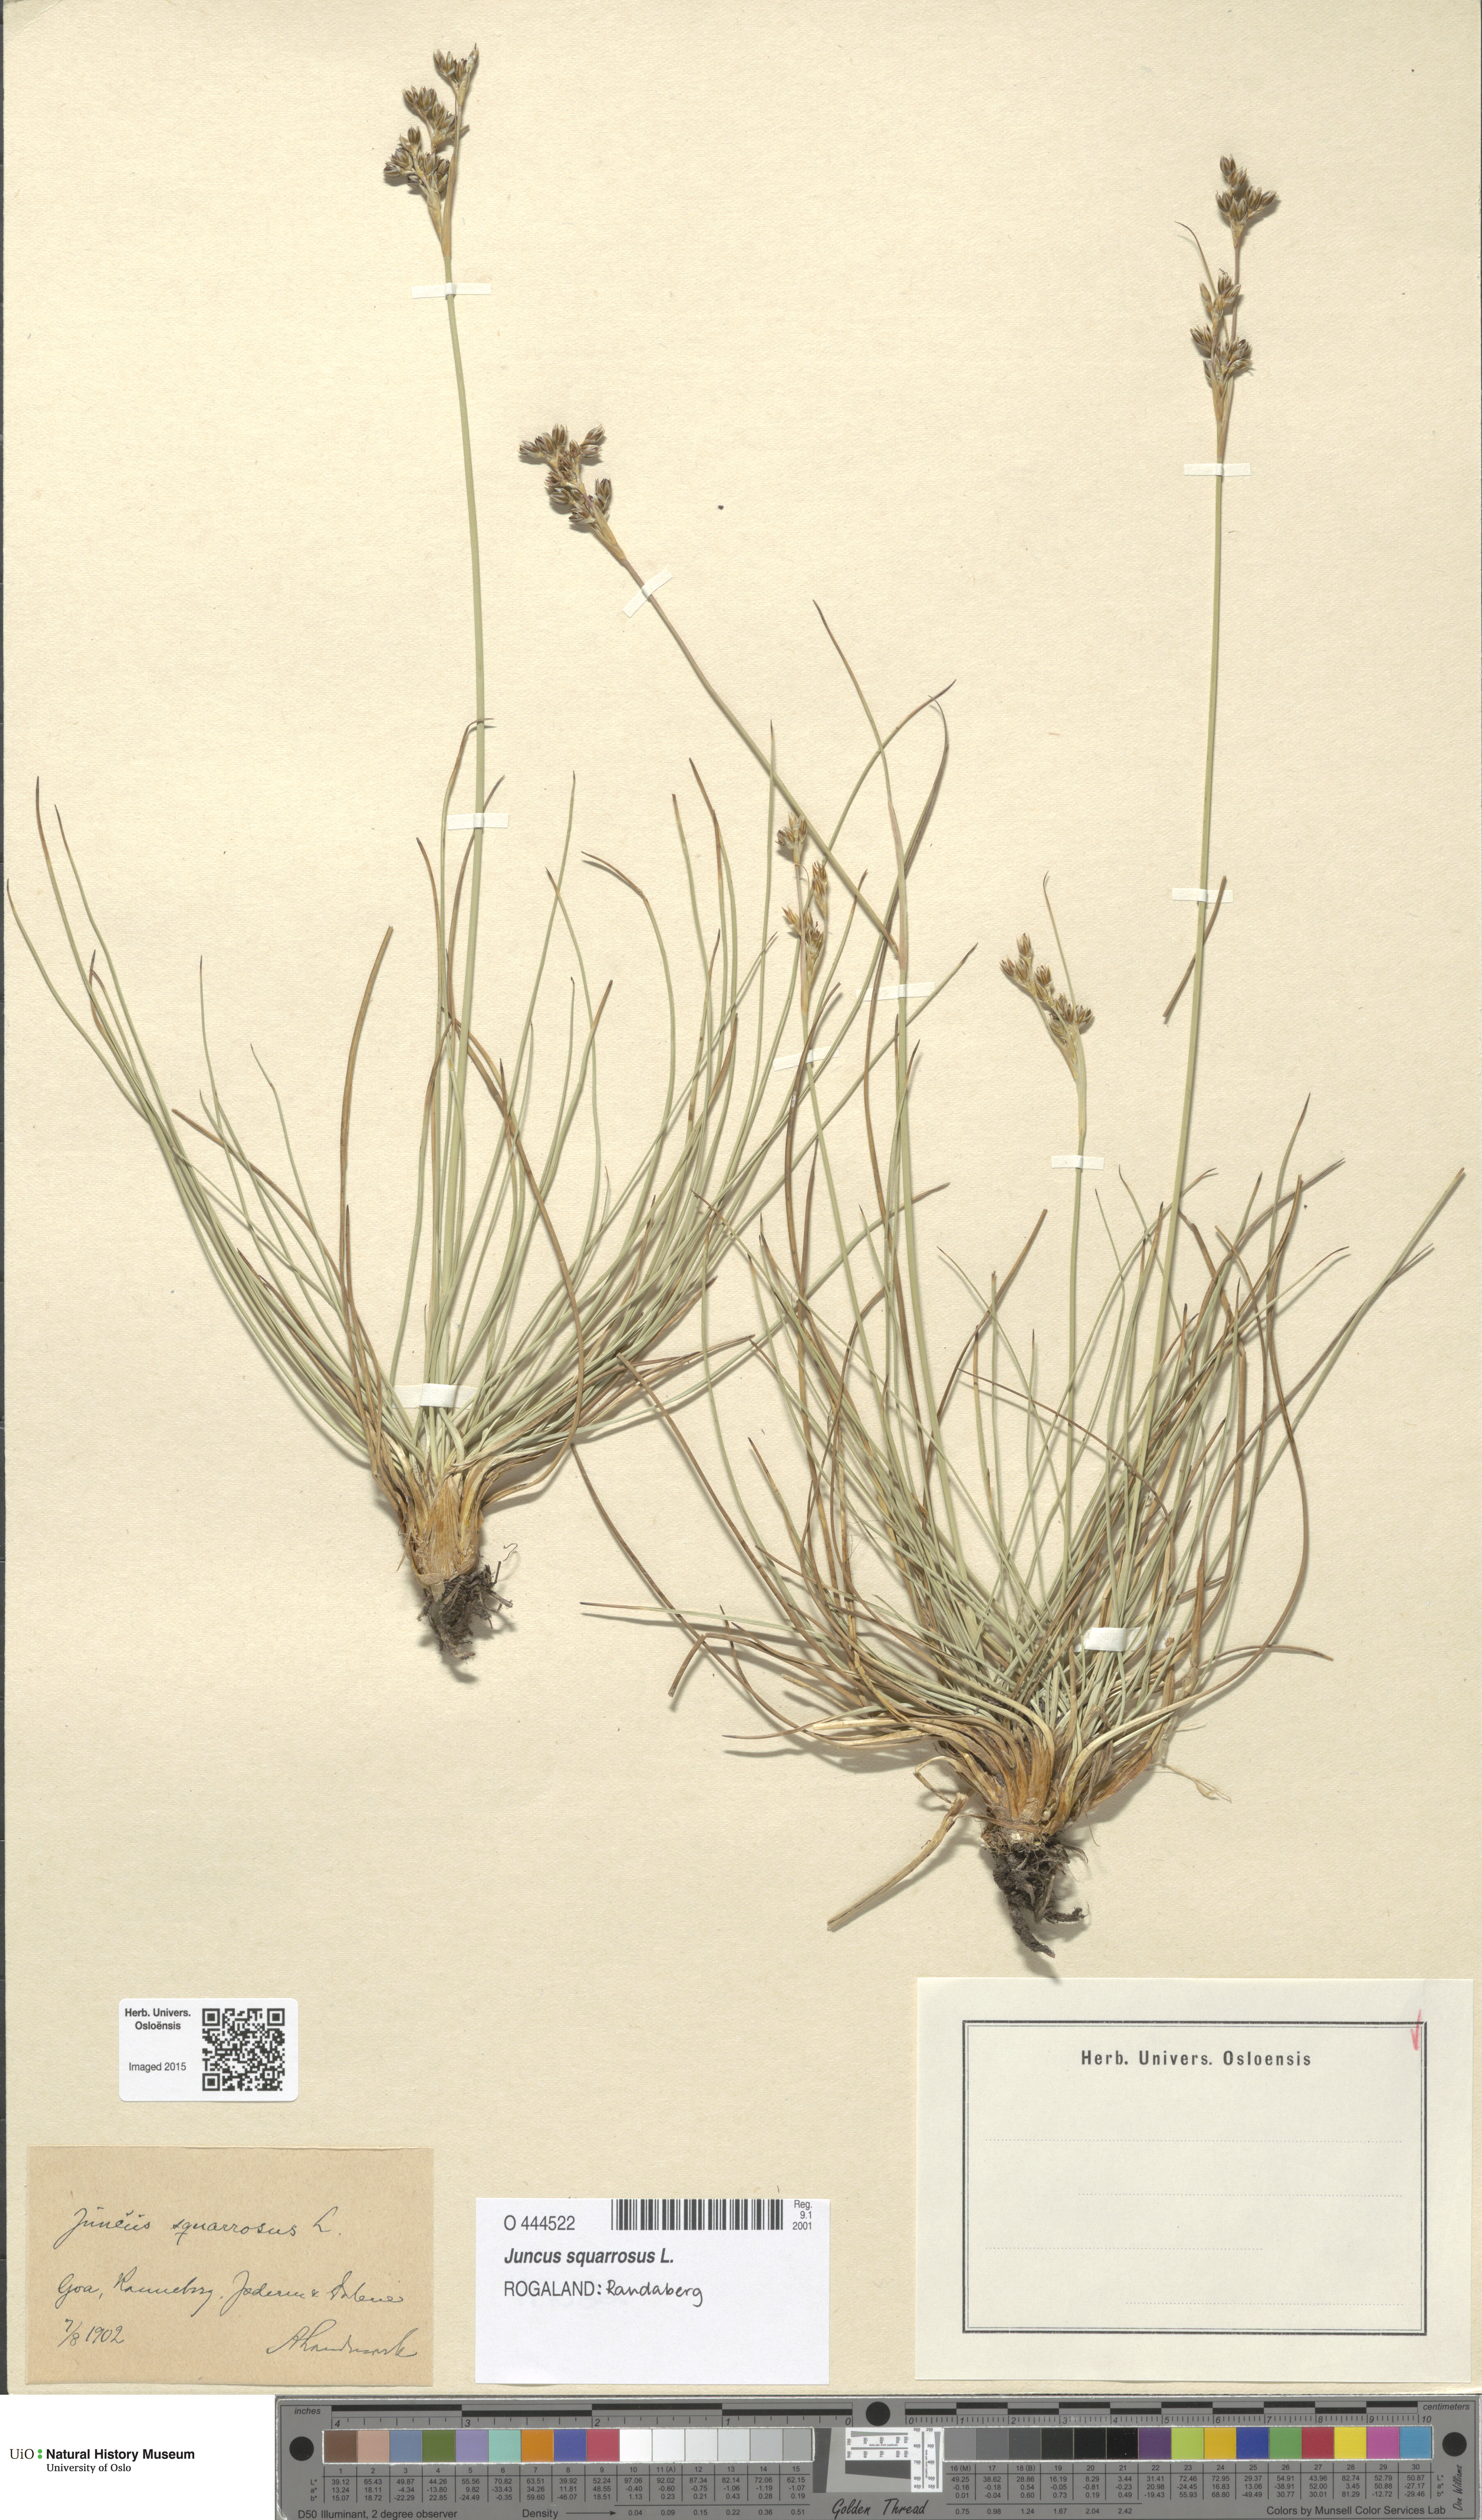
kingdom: Plantae
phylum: Tracheophyta
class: Liliopsida
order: Poales
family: Juncaceae
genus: Juncus
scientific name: Juncus squarrosus
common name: Heath rush
